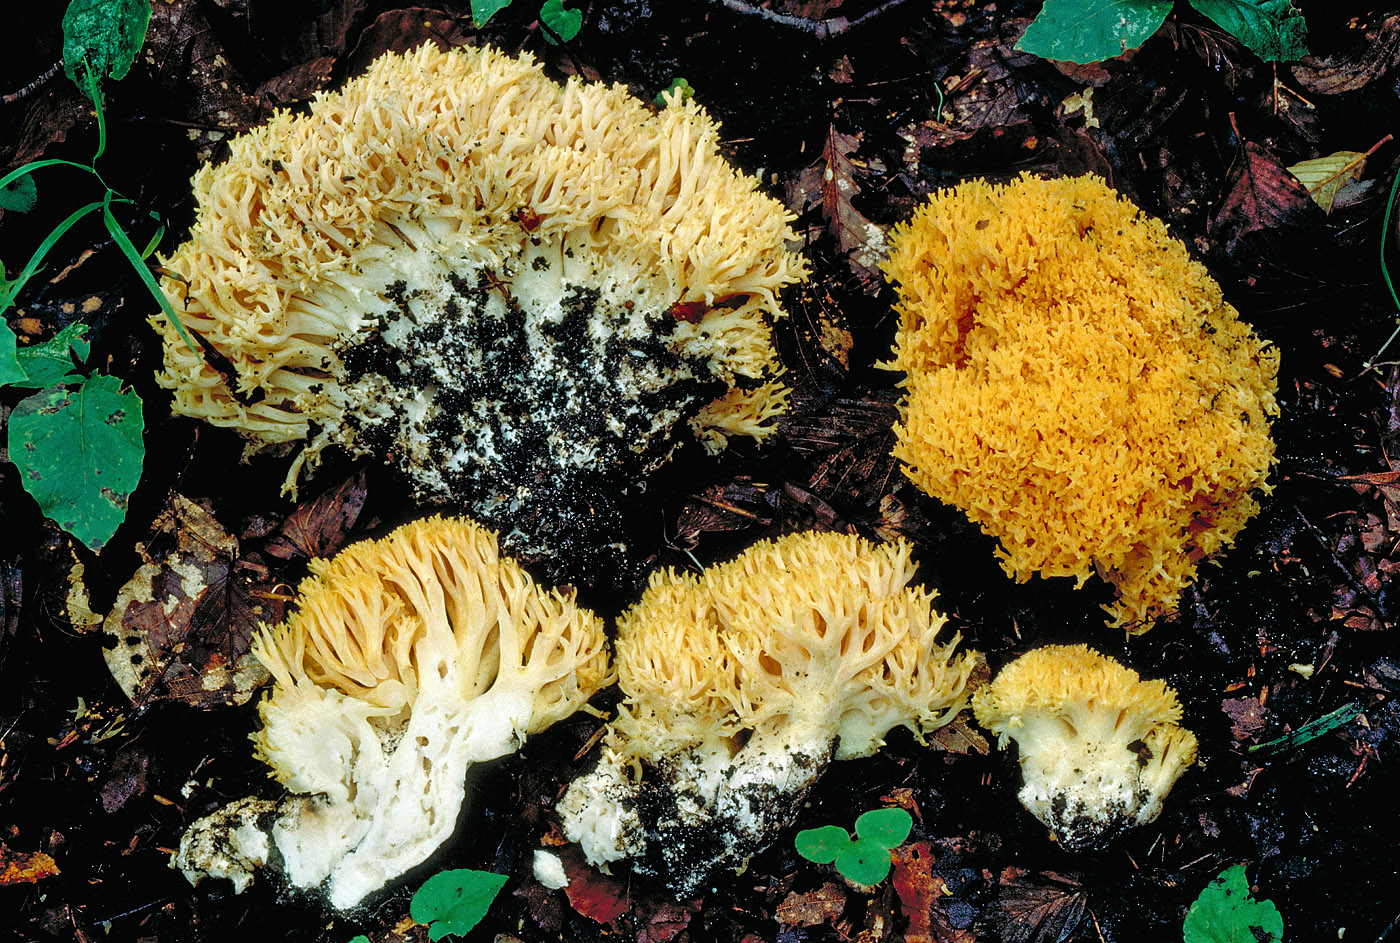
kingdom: Fungi
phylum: Basidiomycota
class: Agaricomycetes
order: Gomphales
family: Gomphaceae
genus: Ramaria
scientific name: Ramaria
